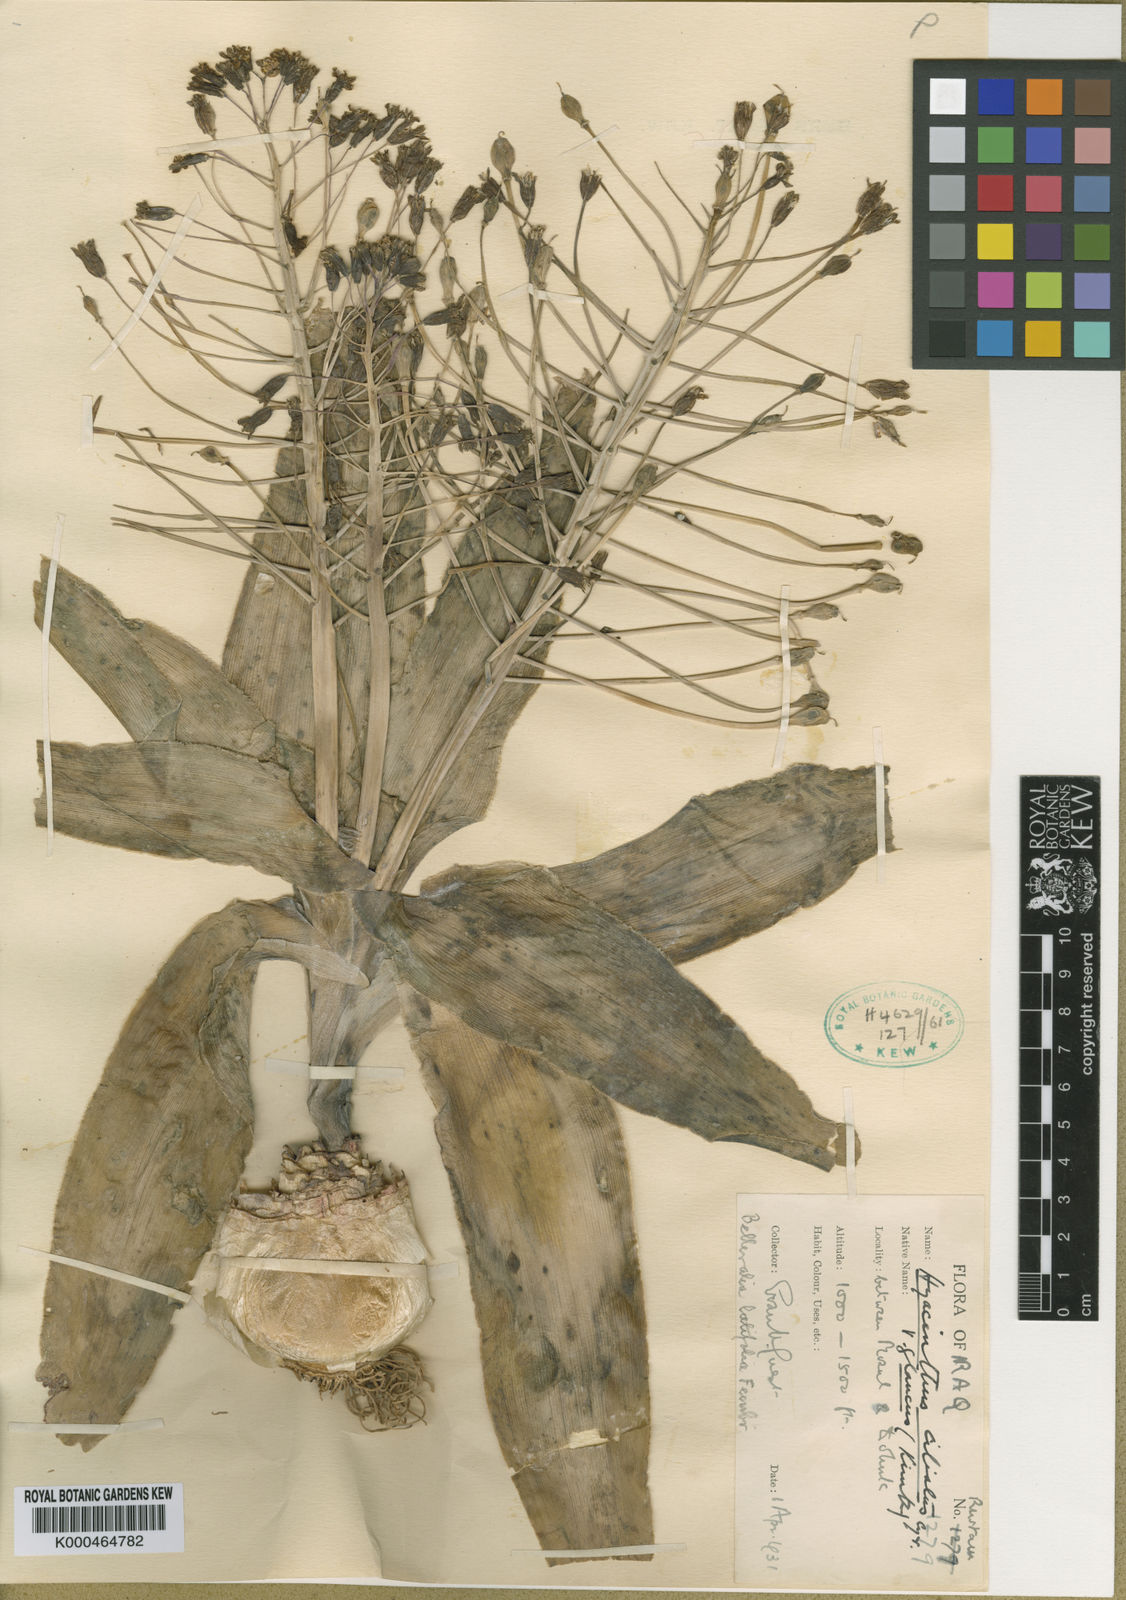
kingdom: Plantae
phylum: Tracheophyta
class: Liliopsida
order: Asparagales
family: Asparagaceae
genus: Bellevalia
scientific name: Bellevalia glauca
